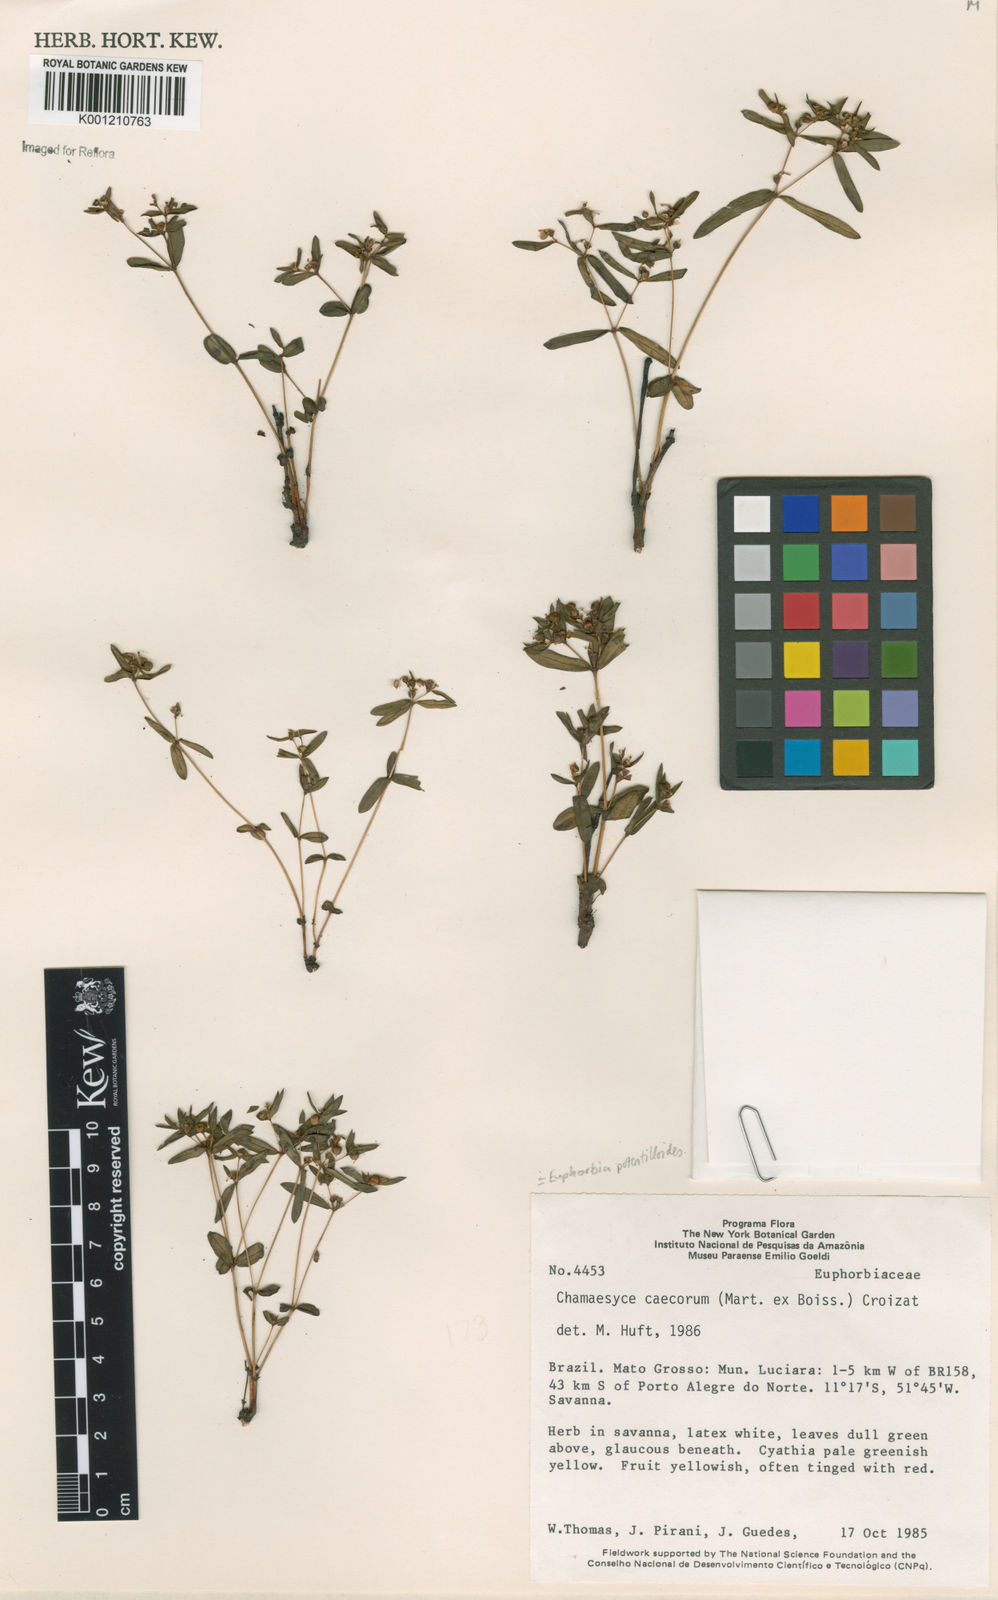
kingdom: Plantae
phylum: Tracheophyta
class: Magnoliopsida
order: Malpighiales
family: Euphorbiaceae
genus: Euphorbia
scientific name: Euphorbia potentilloides
